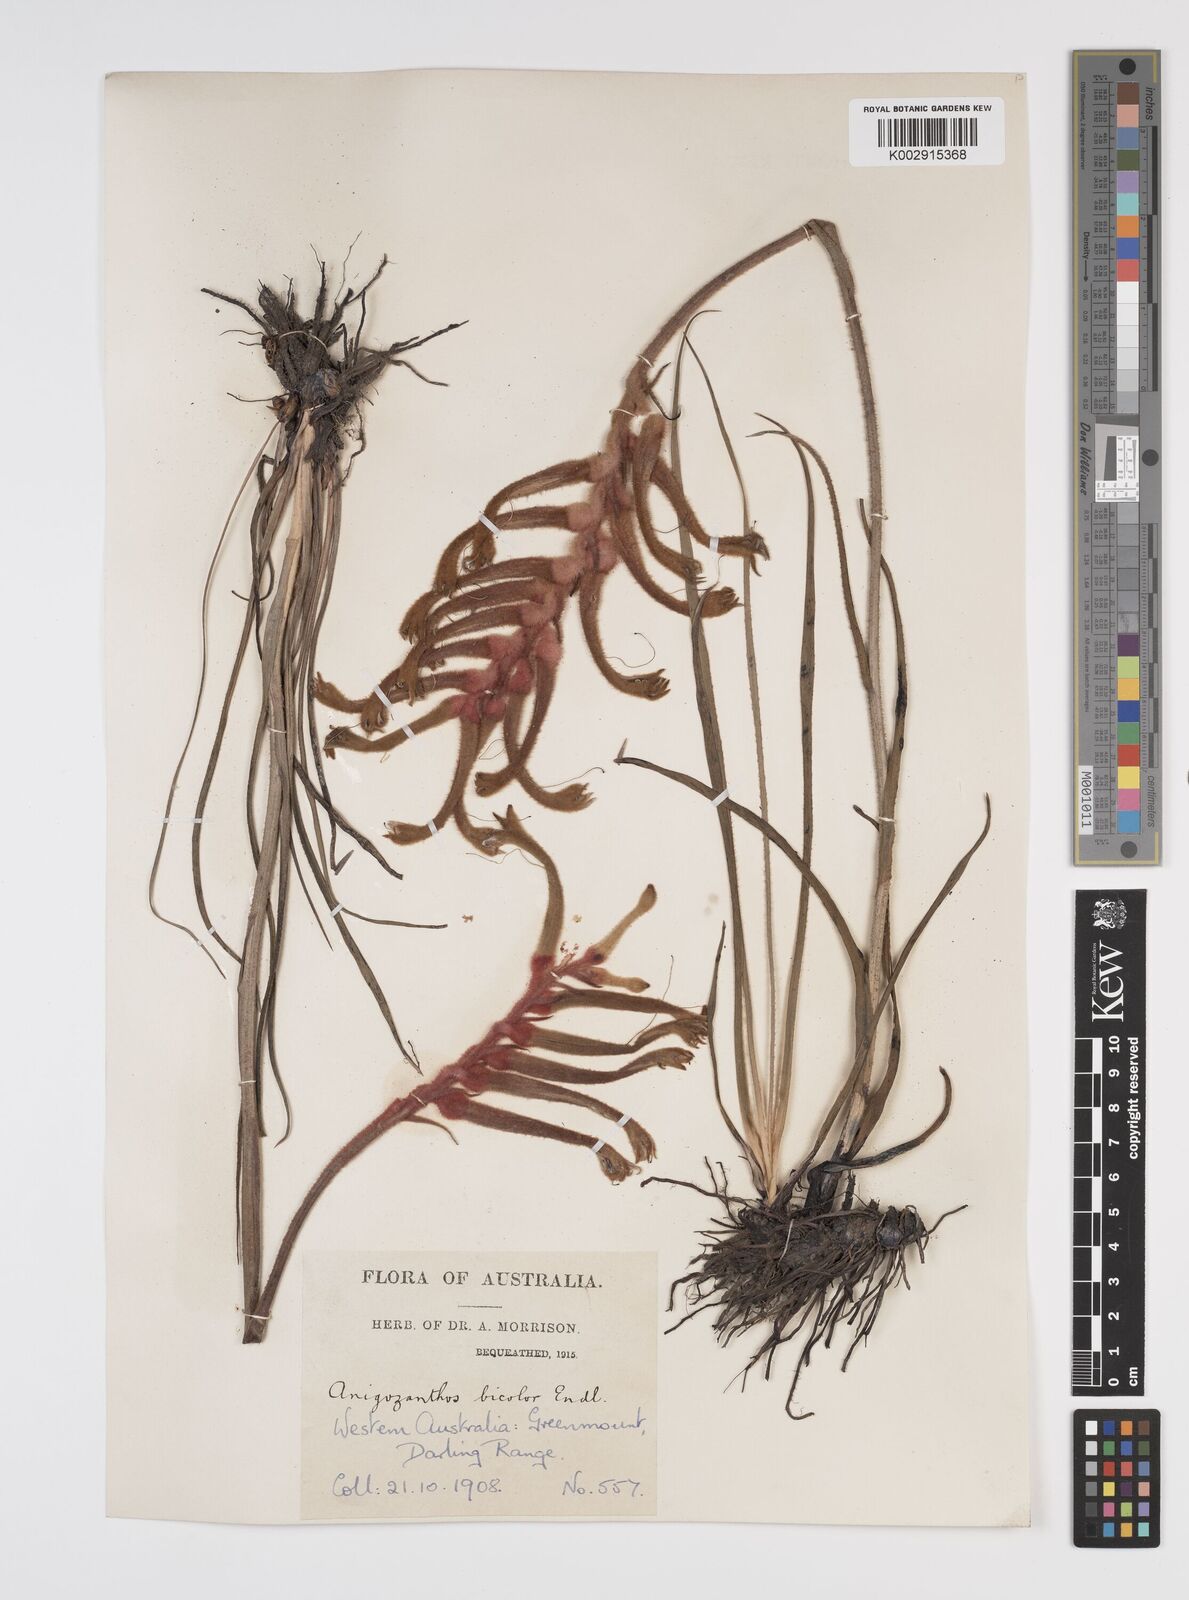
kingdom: Plantae
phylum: Tracheophyta
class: Liliopsida
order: Commelinales
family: Haemodoraceae
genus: Anigozanthos
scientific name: Anigozanthos bicolor
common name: Little kangaroo-paw
